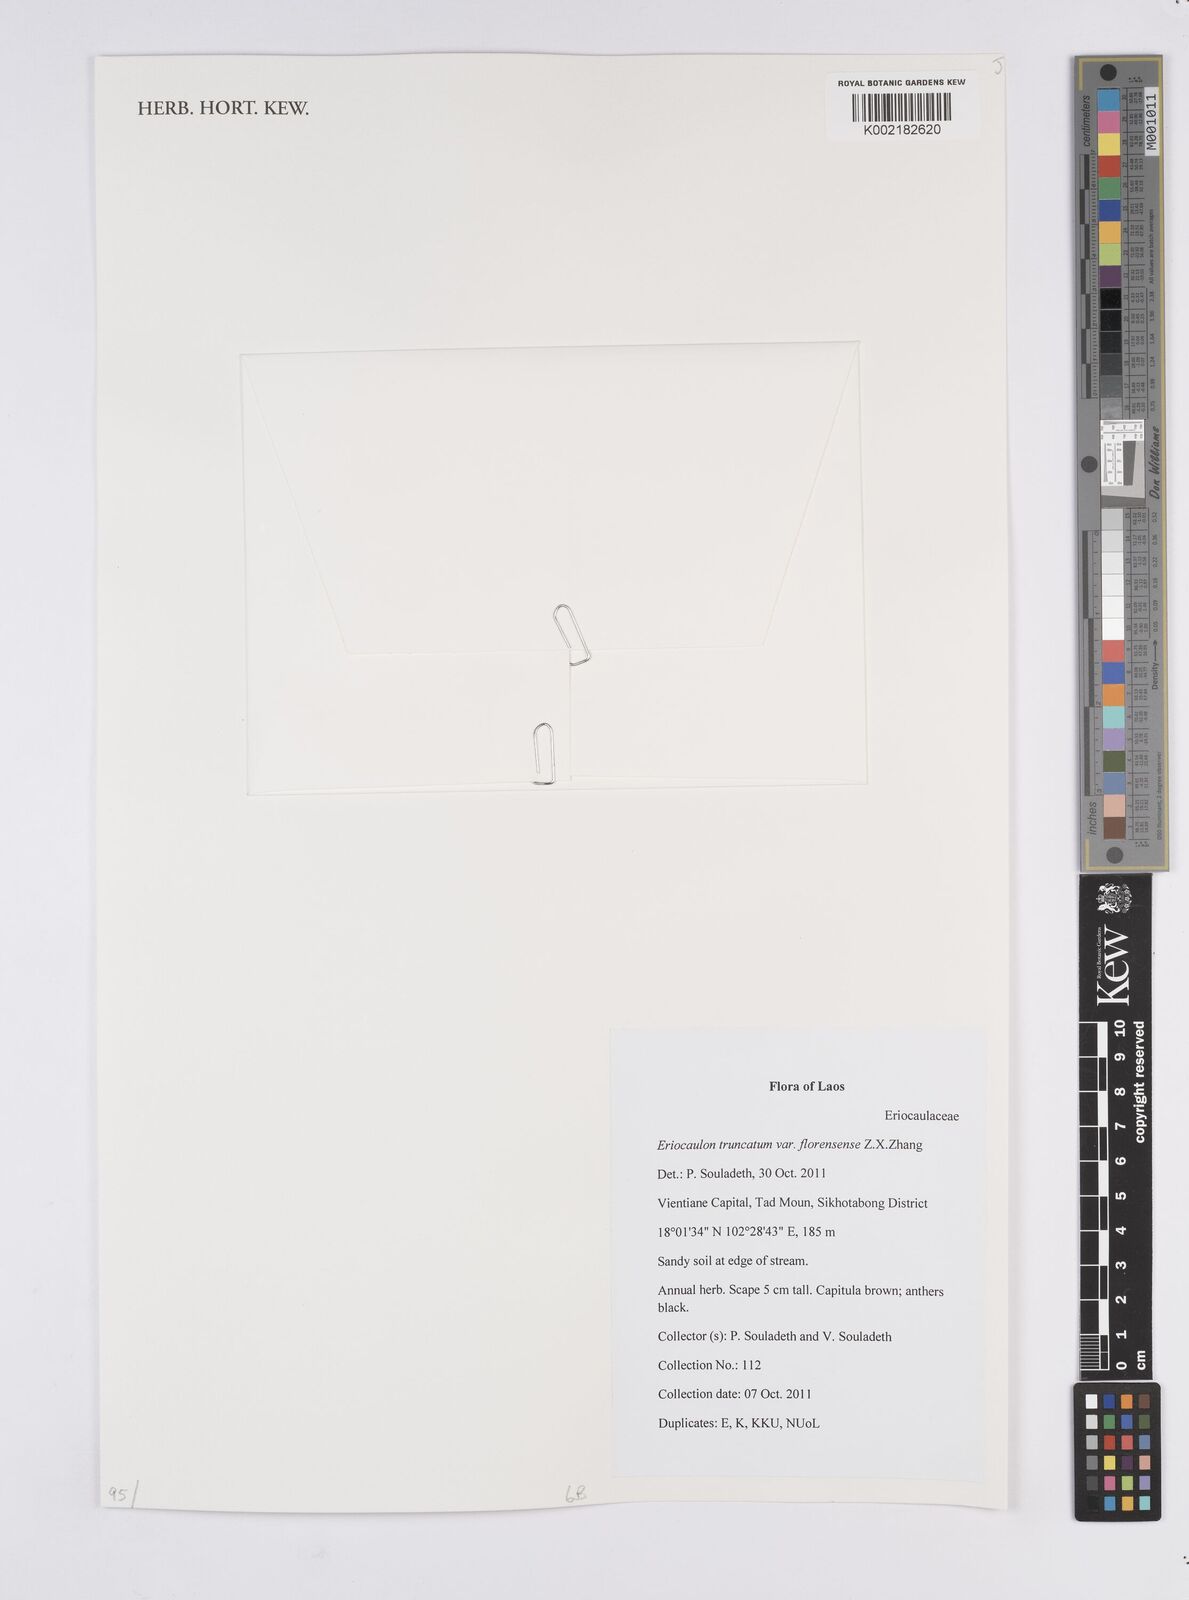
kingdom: Plantae
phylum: Tracheophyta
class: Liliopsida
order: Poales
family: Eriocaulaceae
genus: Eriocaulon
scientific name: Eriocaulon truncatum
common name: Short pipe-wort
